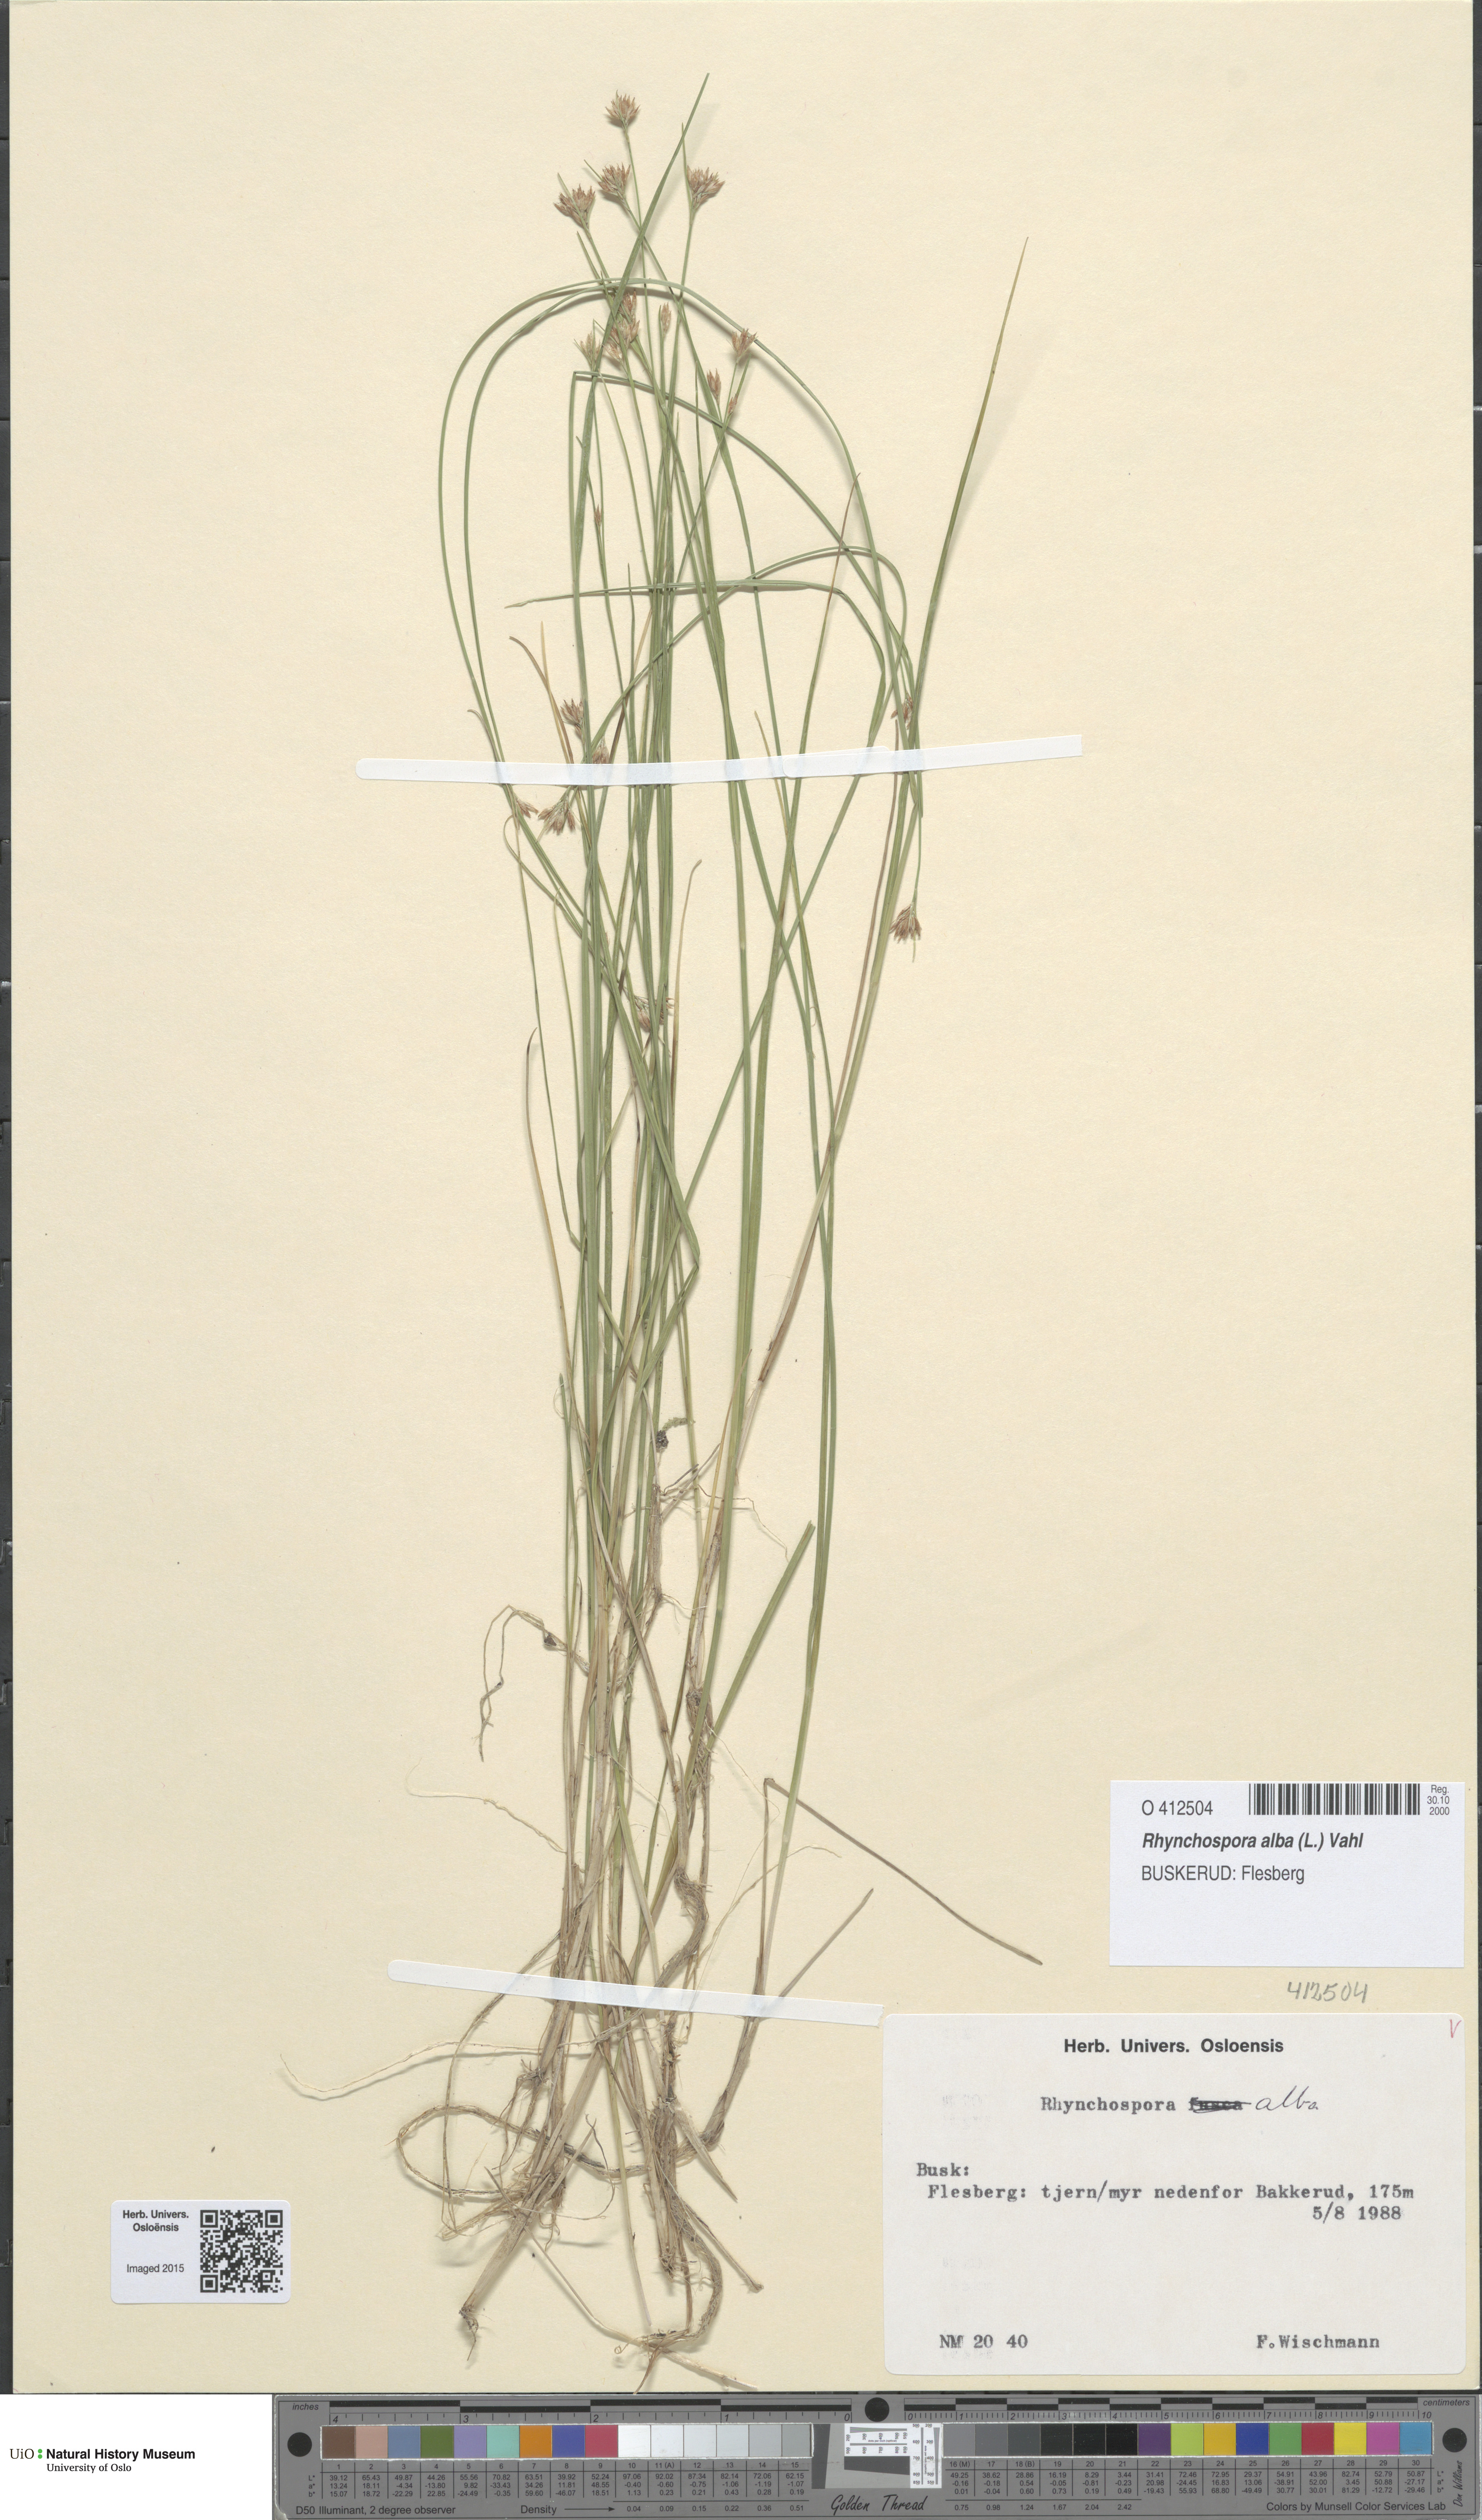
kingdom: Plantae
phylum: Tracheophyta
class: Liliopsida
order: Poales
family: Cyperaceae
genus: Rhynchospora
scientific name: Rhynchospora alba
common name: White beak-sedge
